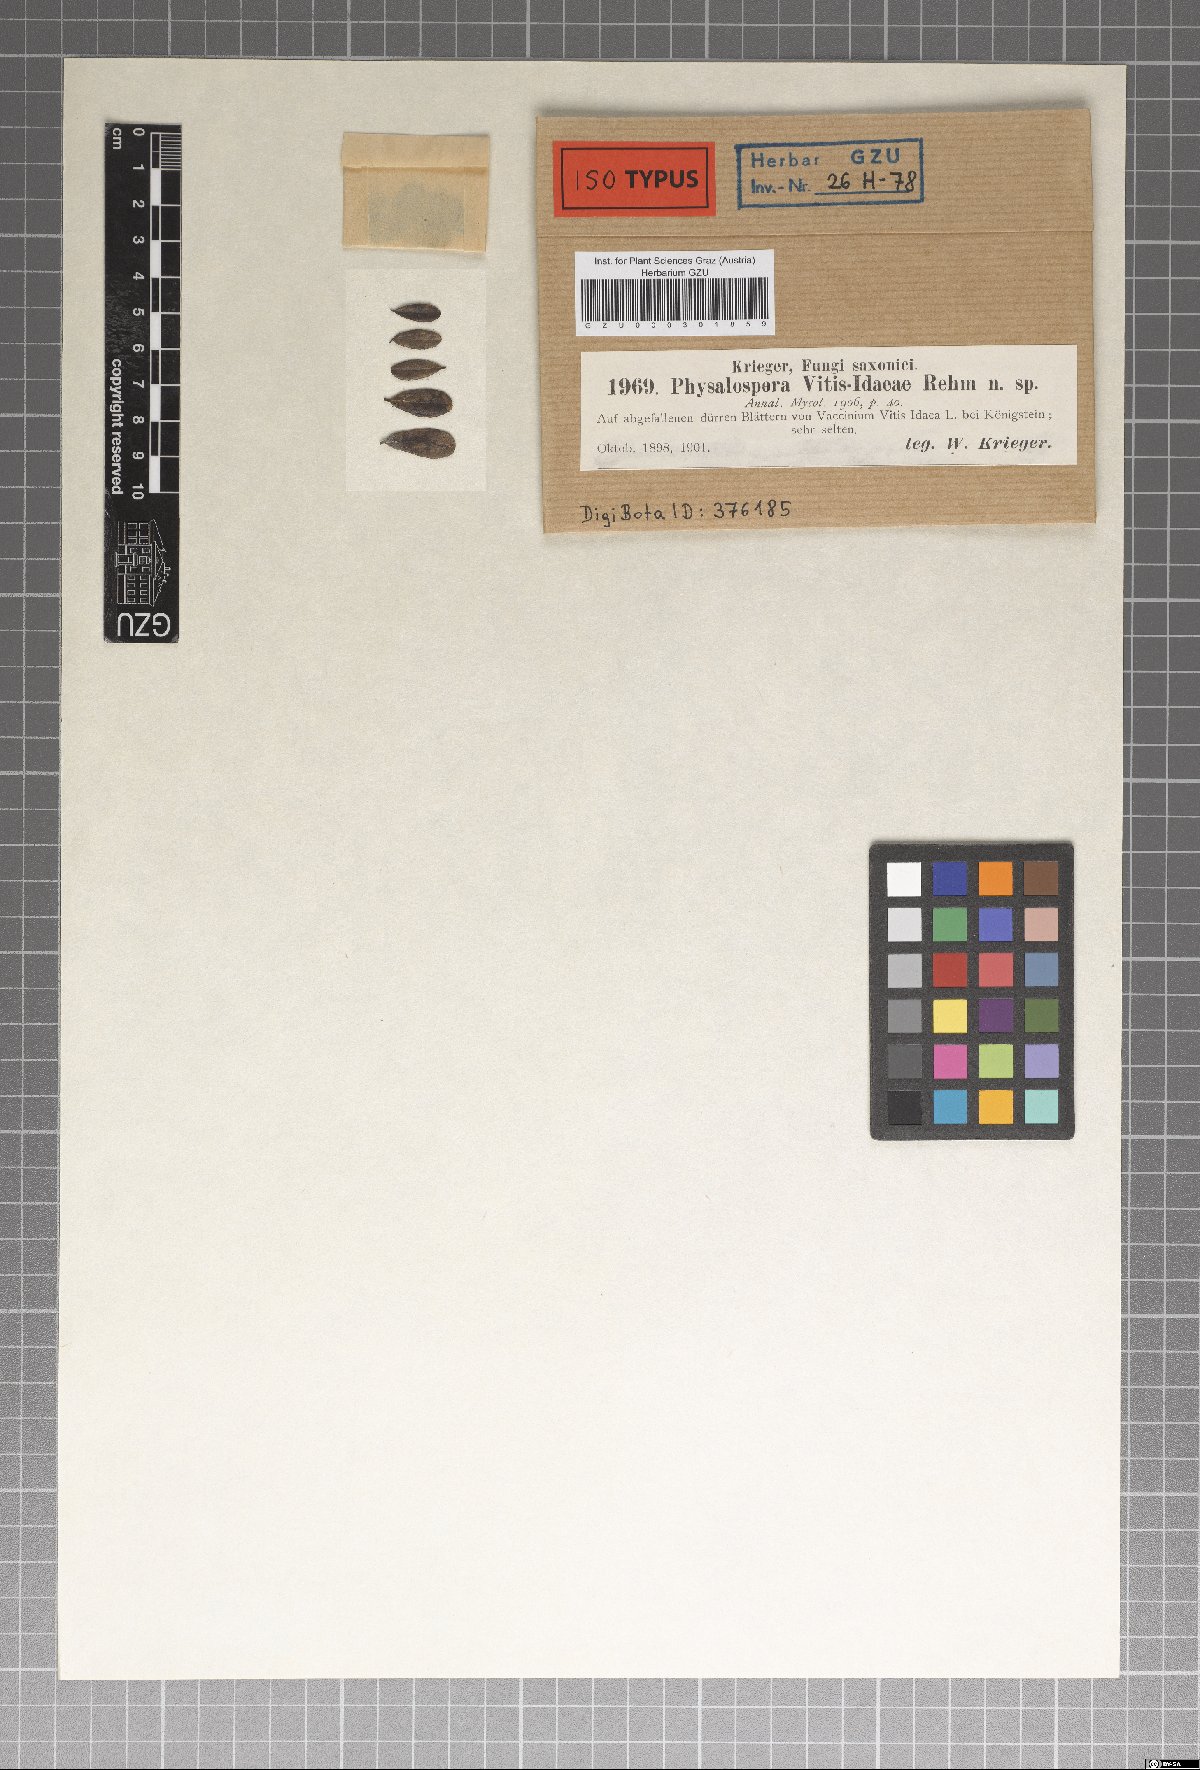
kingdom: Fungi
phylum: Ascomycota
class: Sordariomycetes
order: Xylariales
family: Hyponectriaceae
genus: Physalospora
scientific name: Physalospora vitis-idaeae
